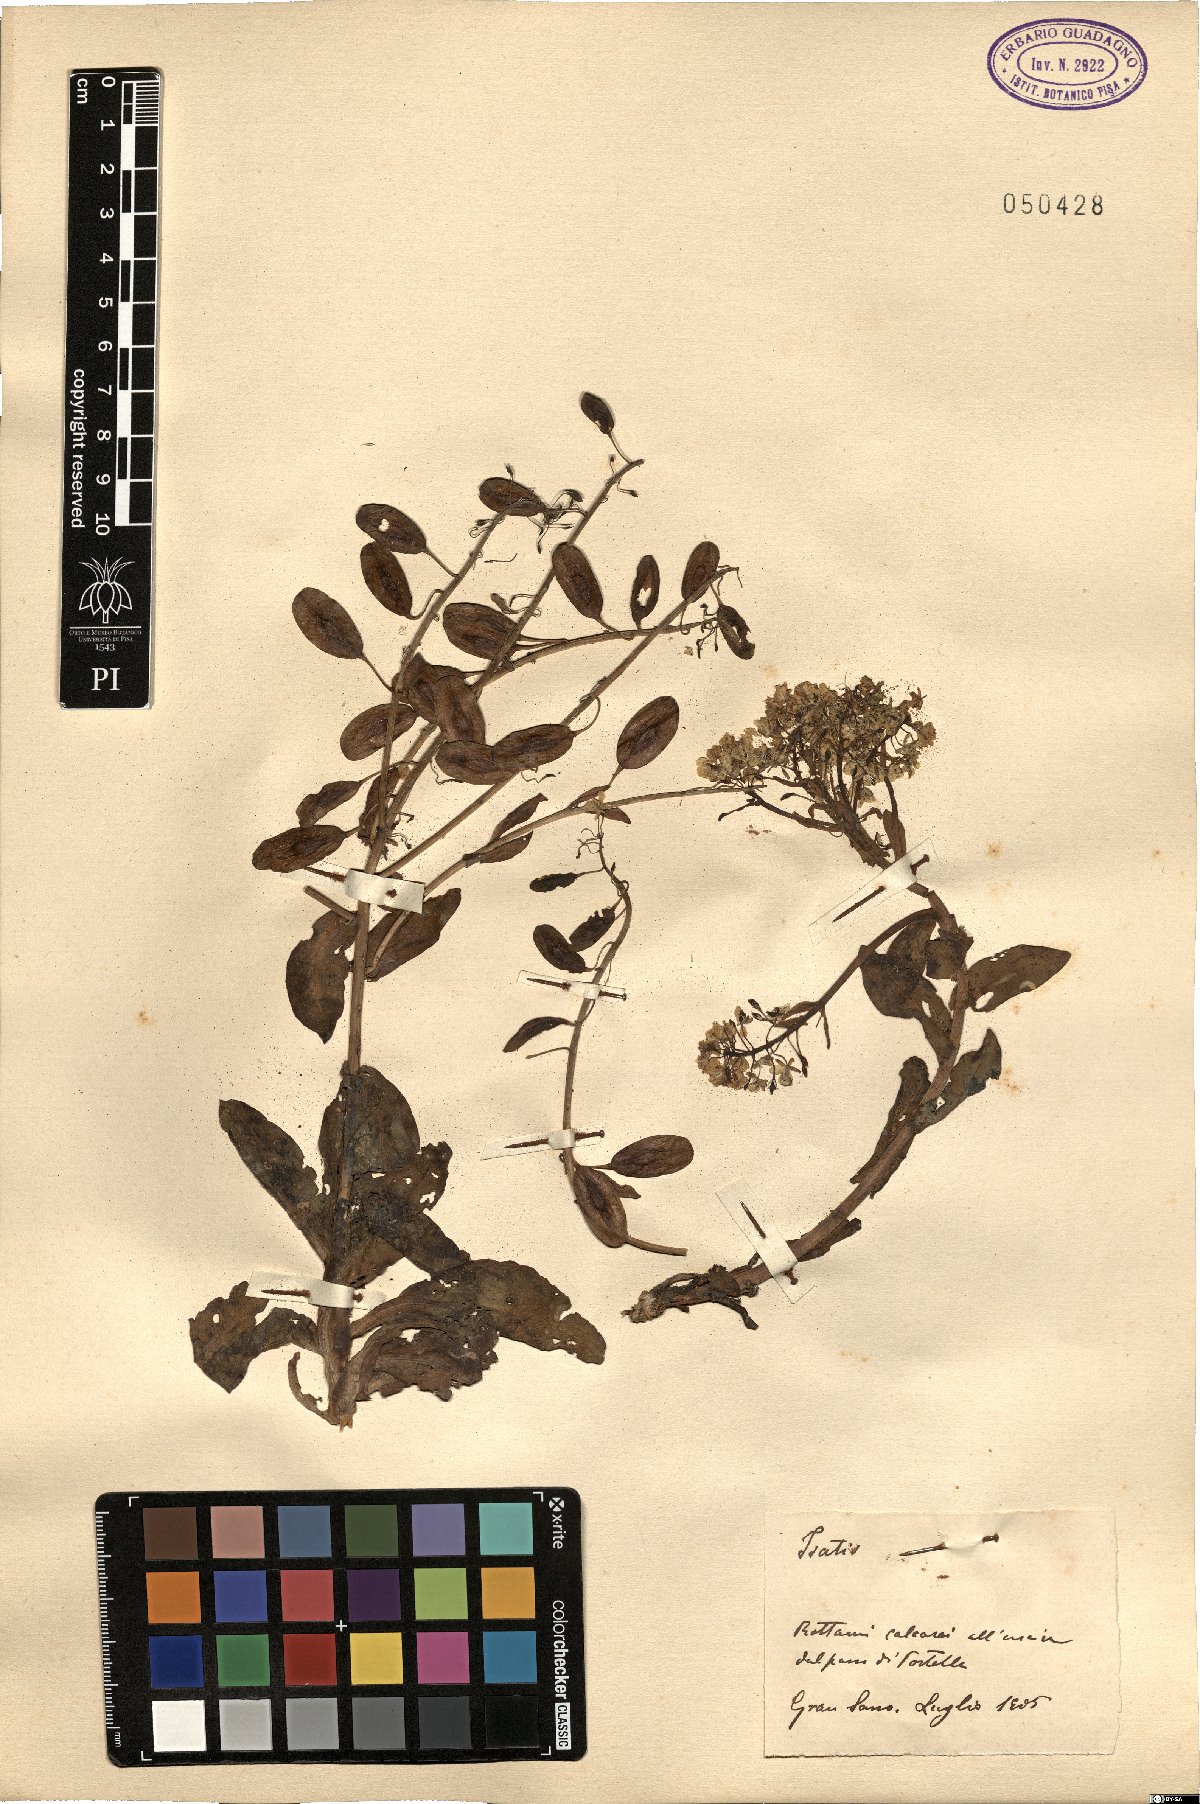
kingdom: Plantae
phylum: Tracheophyta
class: Magnoliopsida
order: Brassicales
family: Brassicaceae
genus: Isatis
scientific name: Isatis
